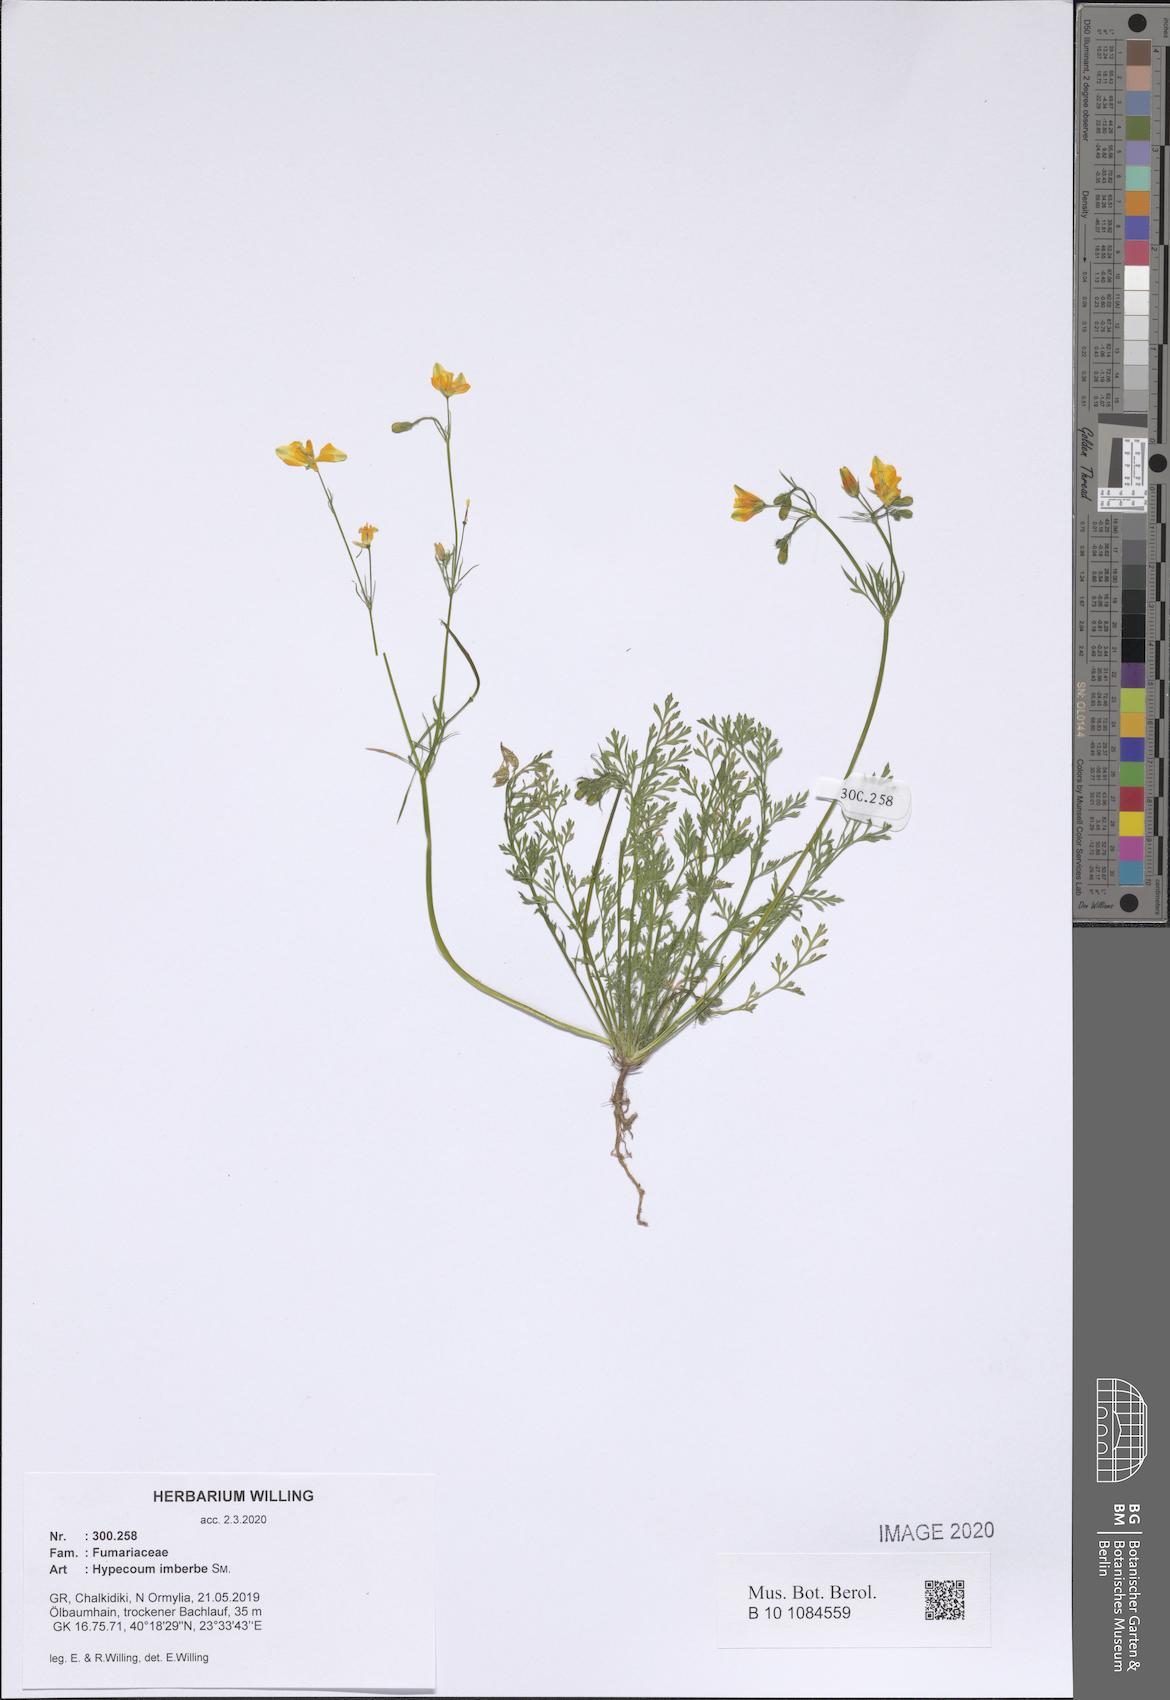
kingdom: Plantae
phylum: Tracheophyta
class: Magnoliopsida
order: Ranunculales
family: Papaveraceae
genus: Hypecoum
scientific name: Hypecoum imberbe
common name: Sicklefruit hypecoum
